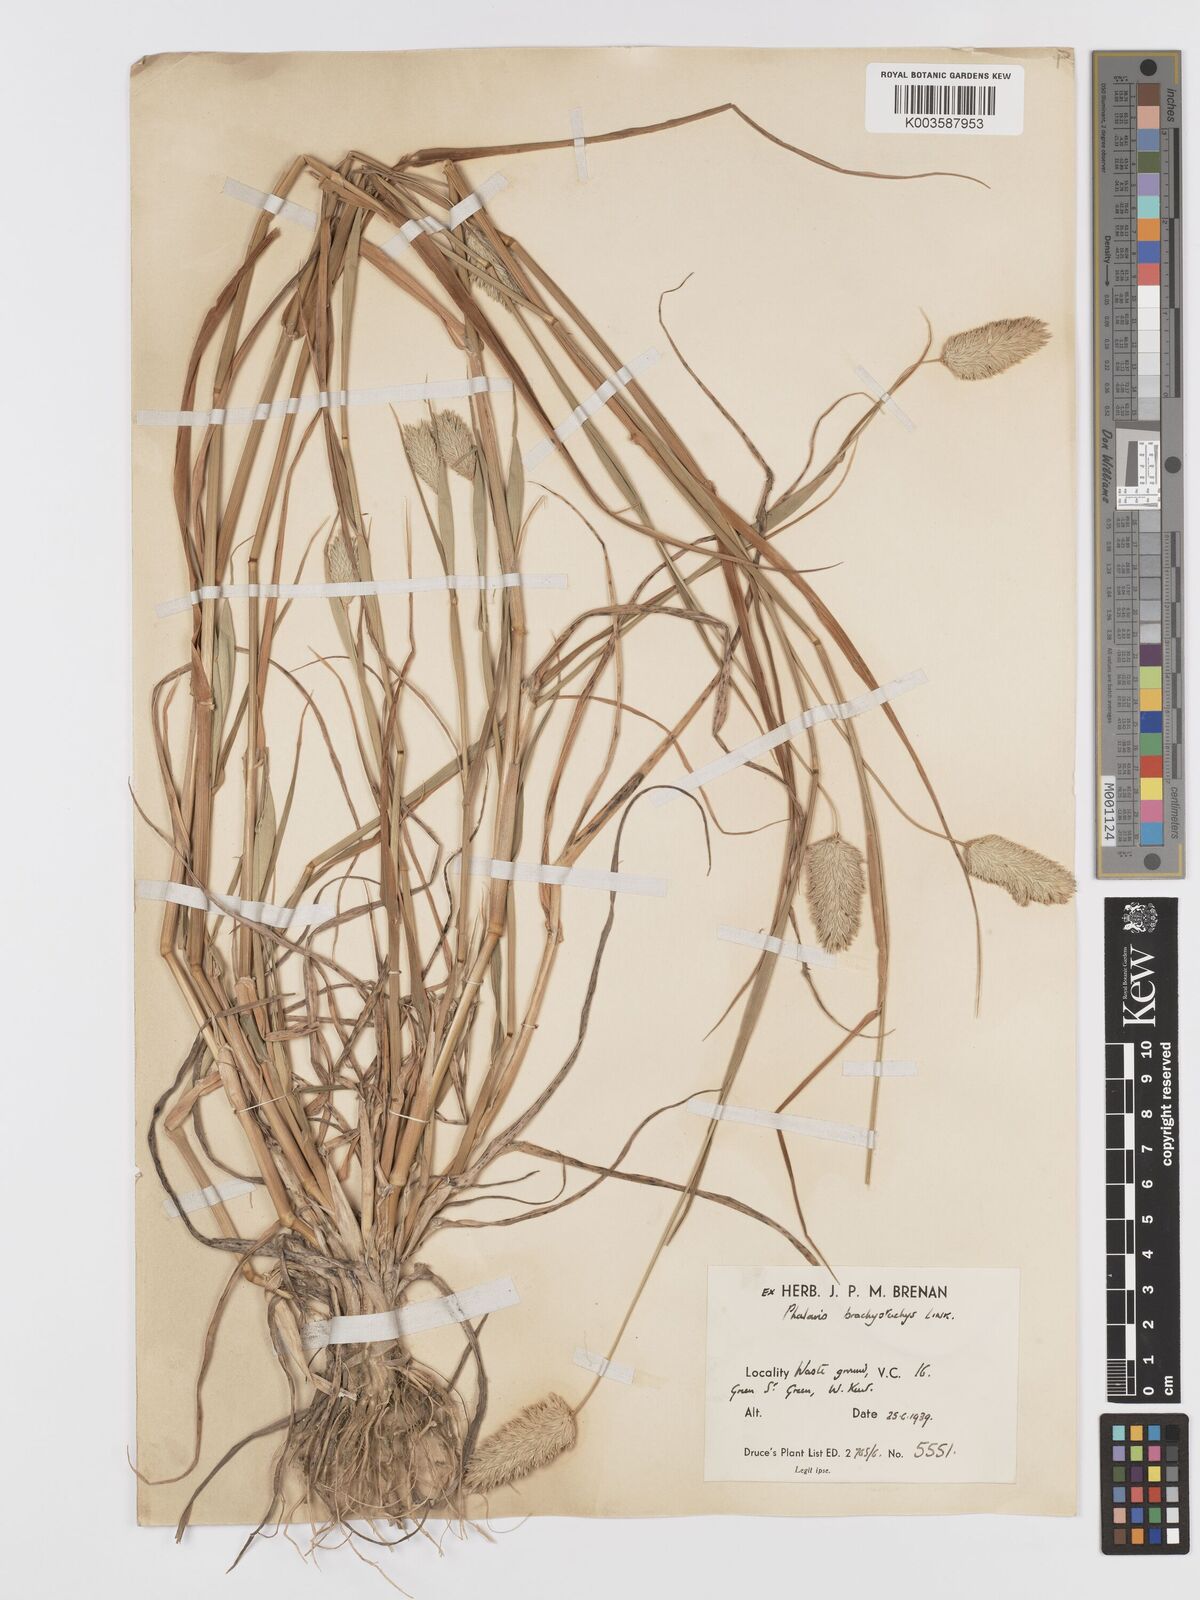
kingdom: Plantae
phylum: Tracheophyta
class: Liliopsida
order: Poales
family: Poaceae
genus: Phalaris
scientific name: Phalaris brachystachys
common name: Confused canary-grass
